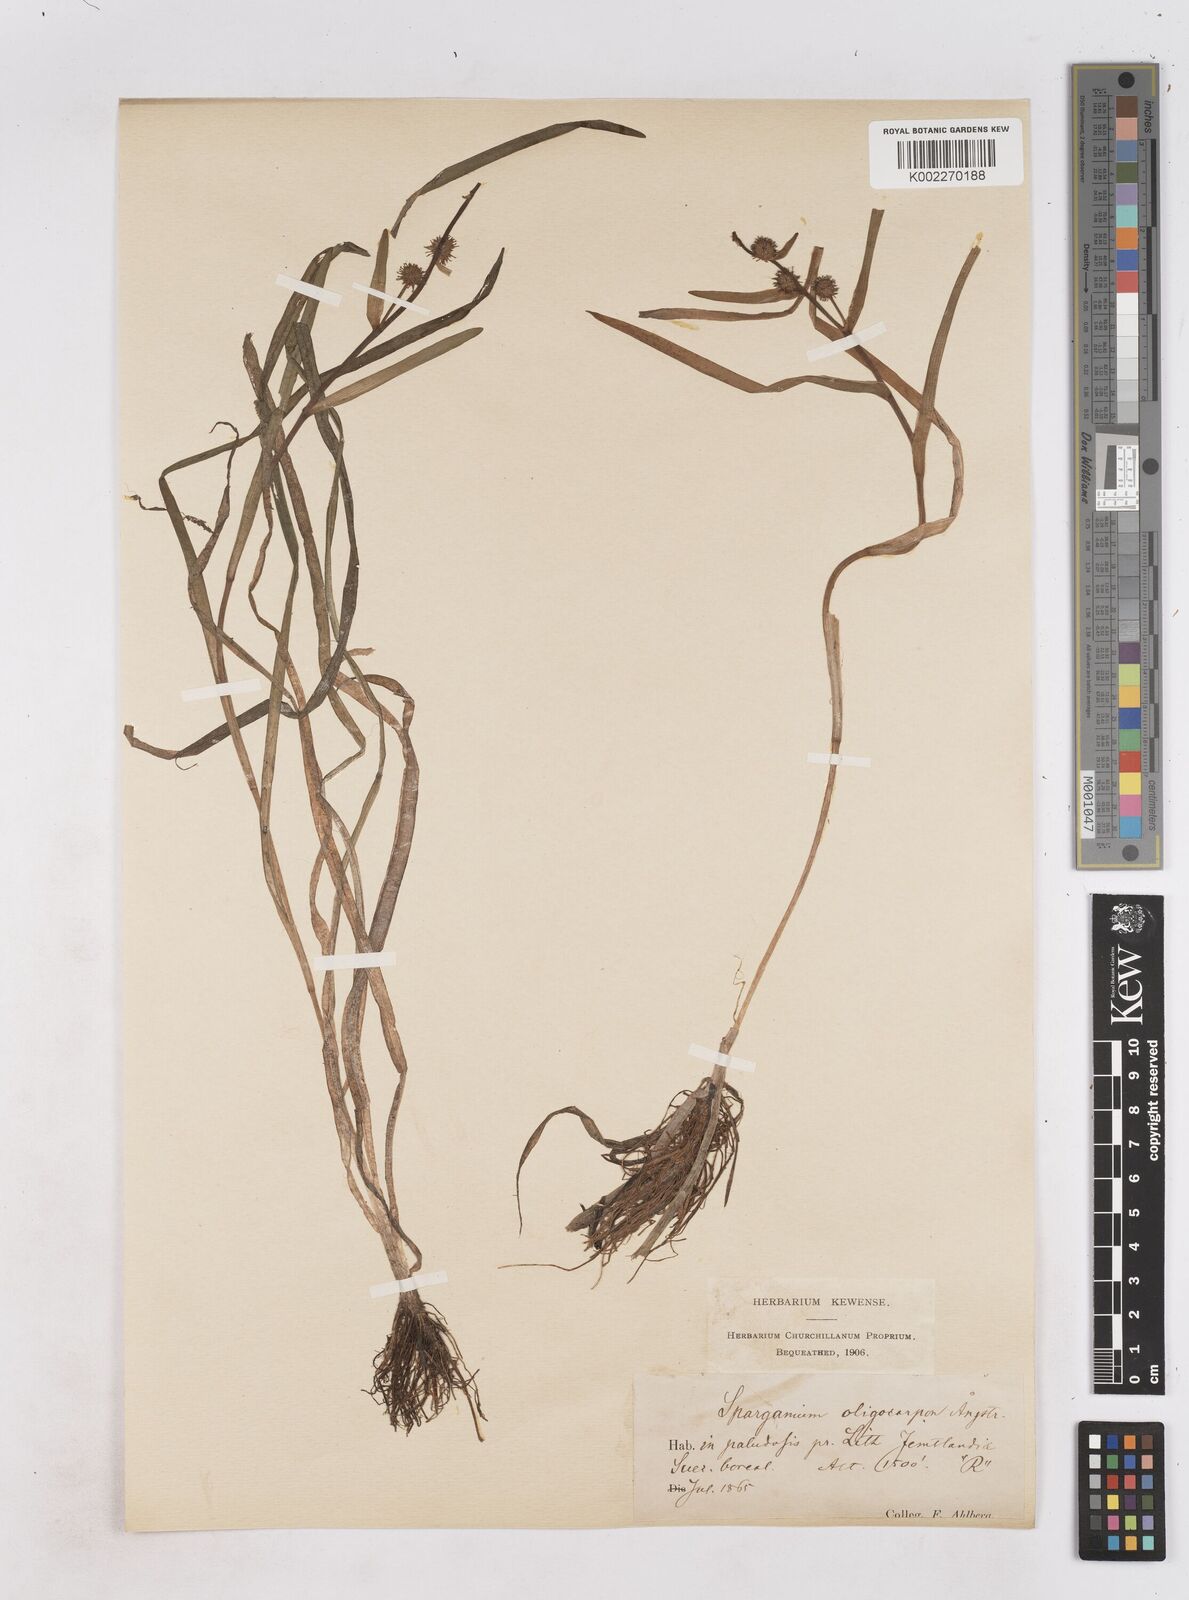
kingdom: Plantae
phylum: Tracheophyta
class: Liliopsida
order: Poales
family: Typhaceae
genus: Sparganium
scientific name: Sparganium oligocarpon
